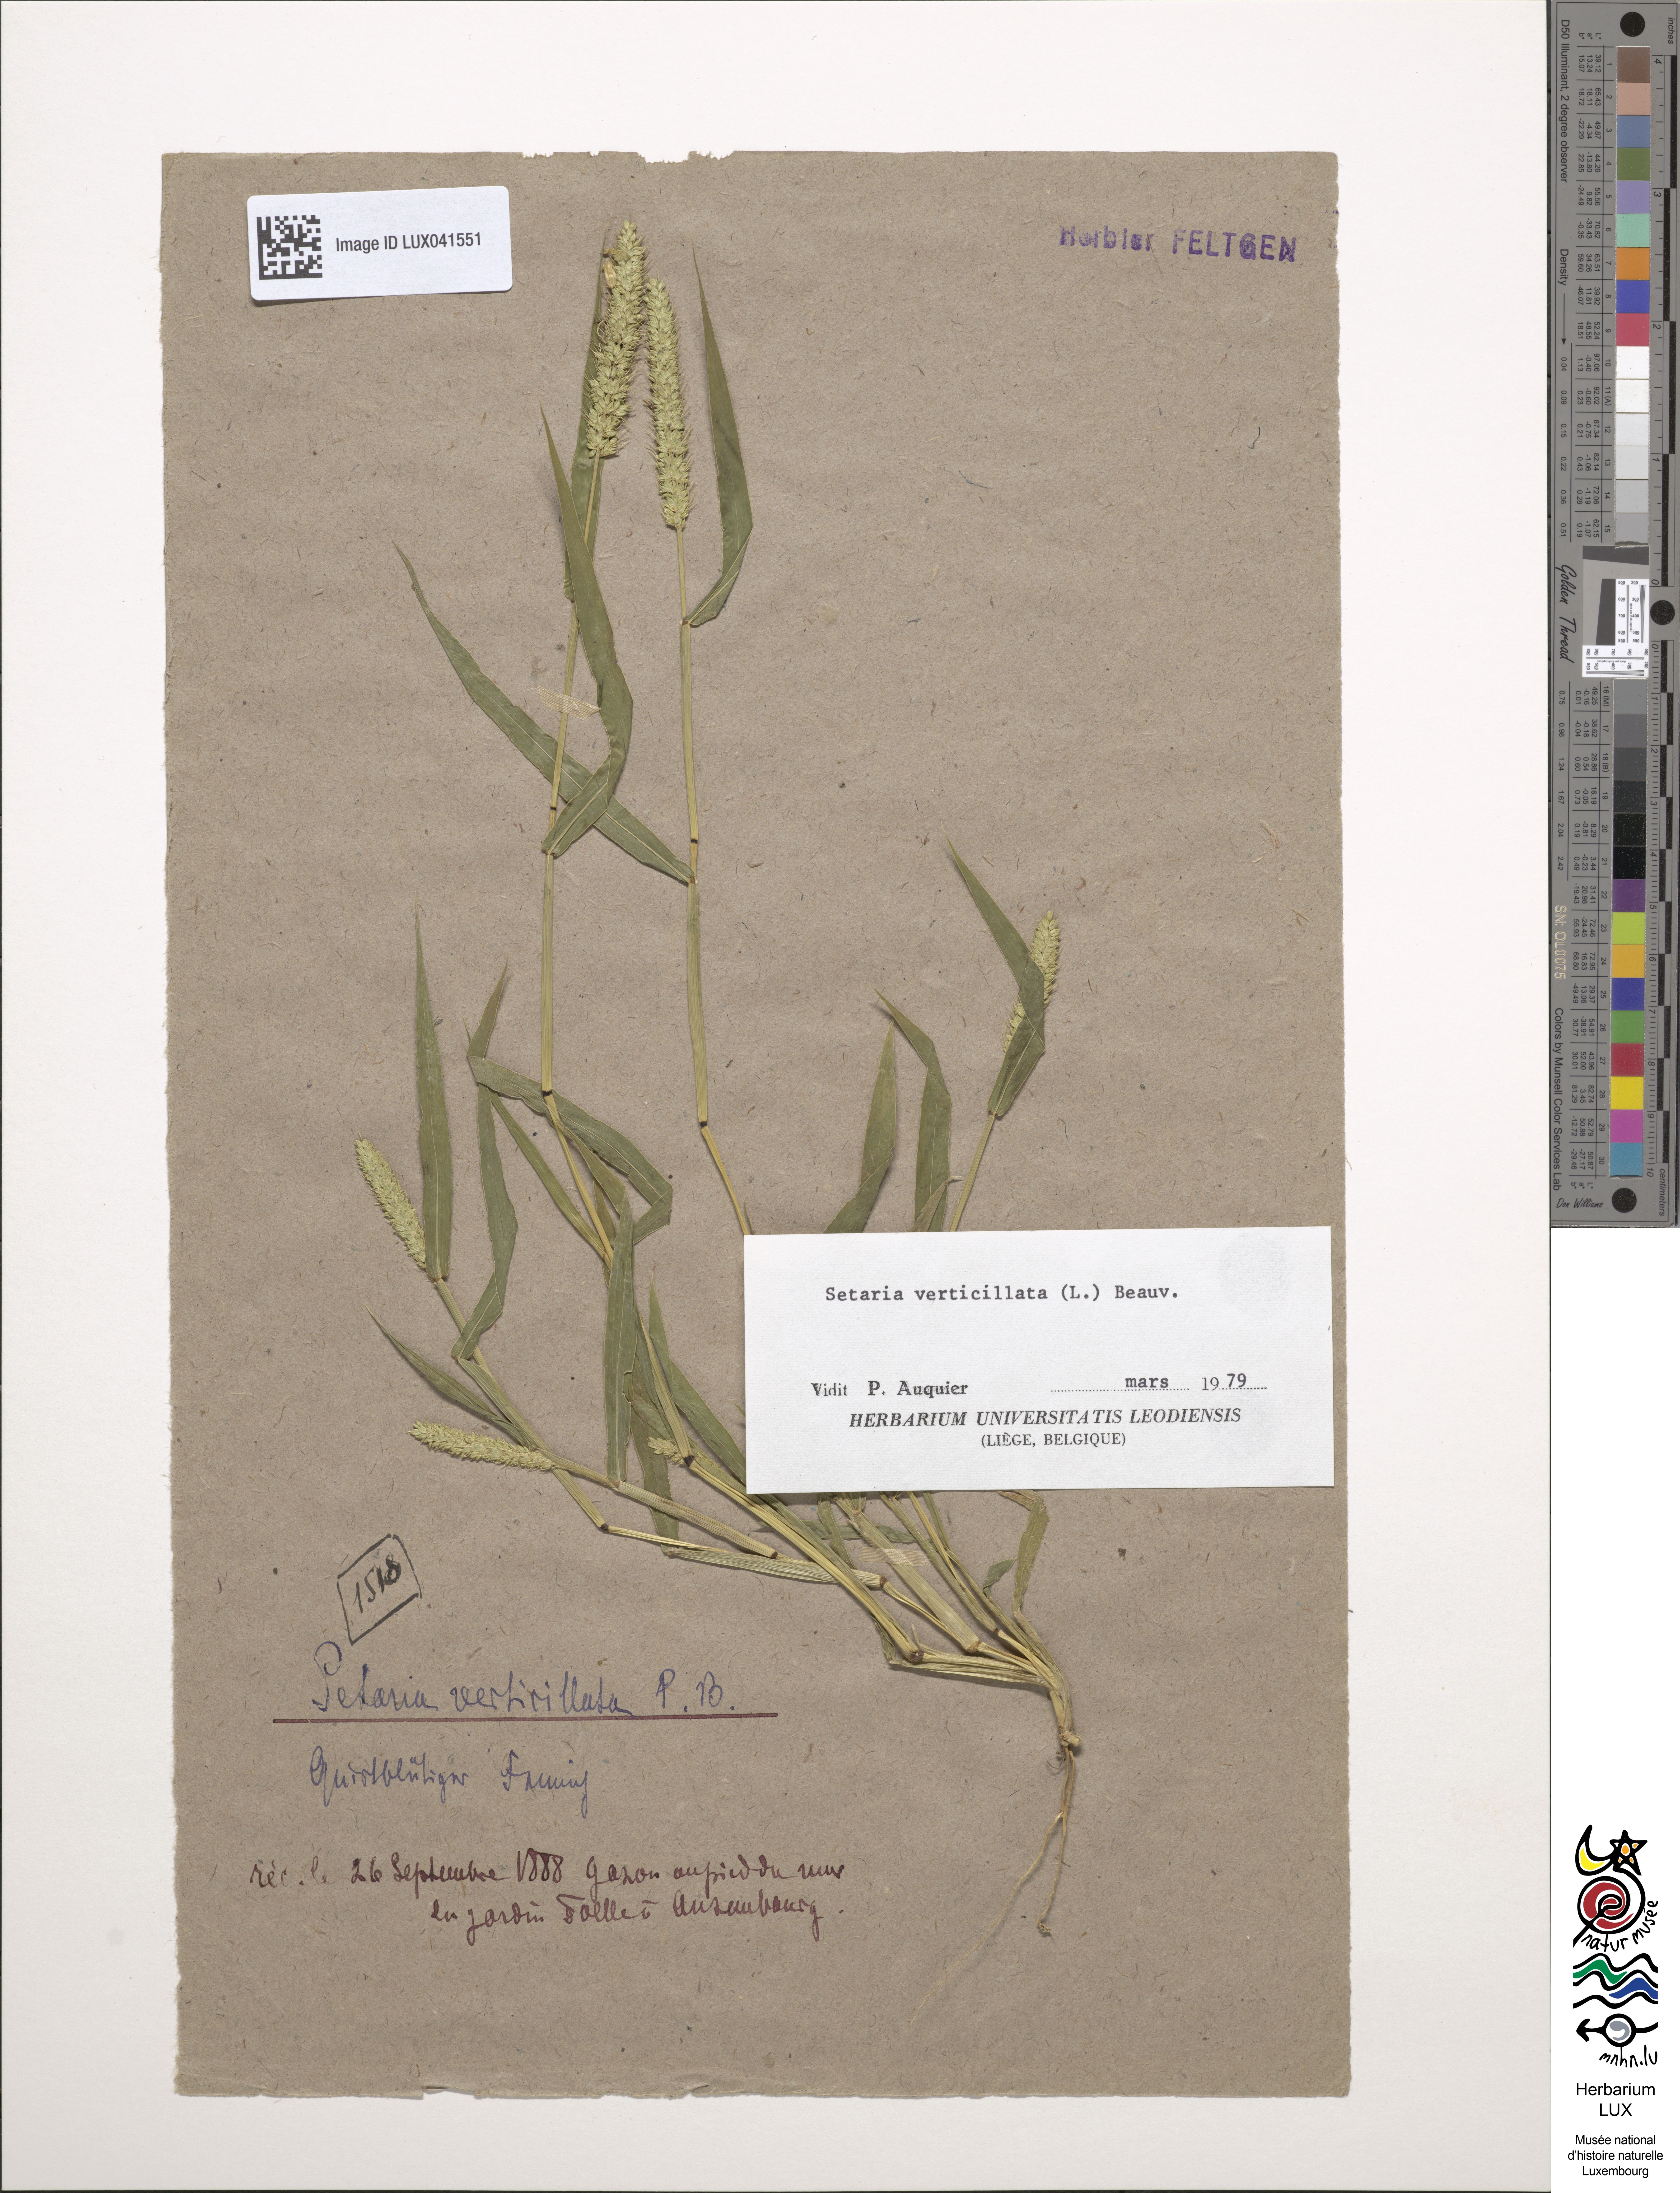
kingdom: Plantae
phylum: Tracheophyta
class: Liliopsida
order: Poales
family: Poaceae
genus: Setaria
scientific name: Setaria verticillata
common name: Hooked bristlegrass
